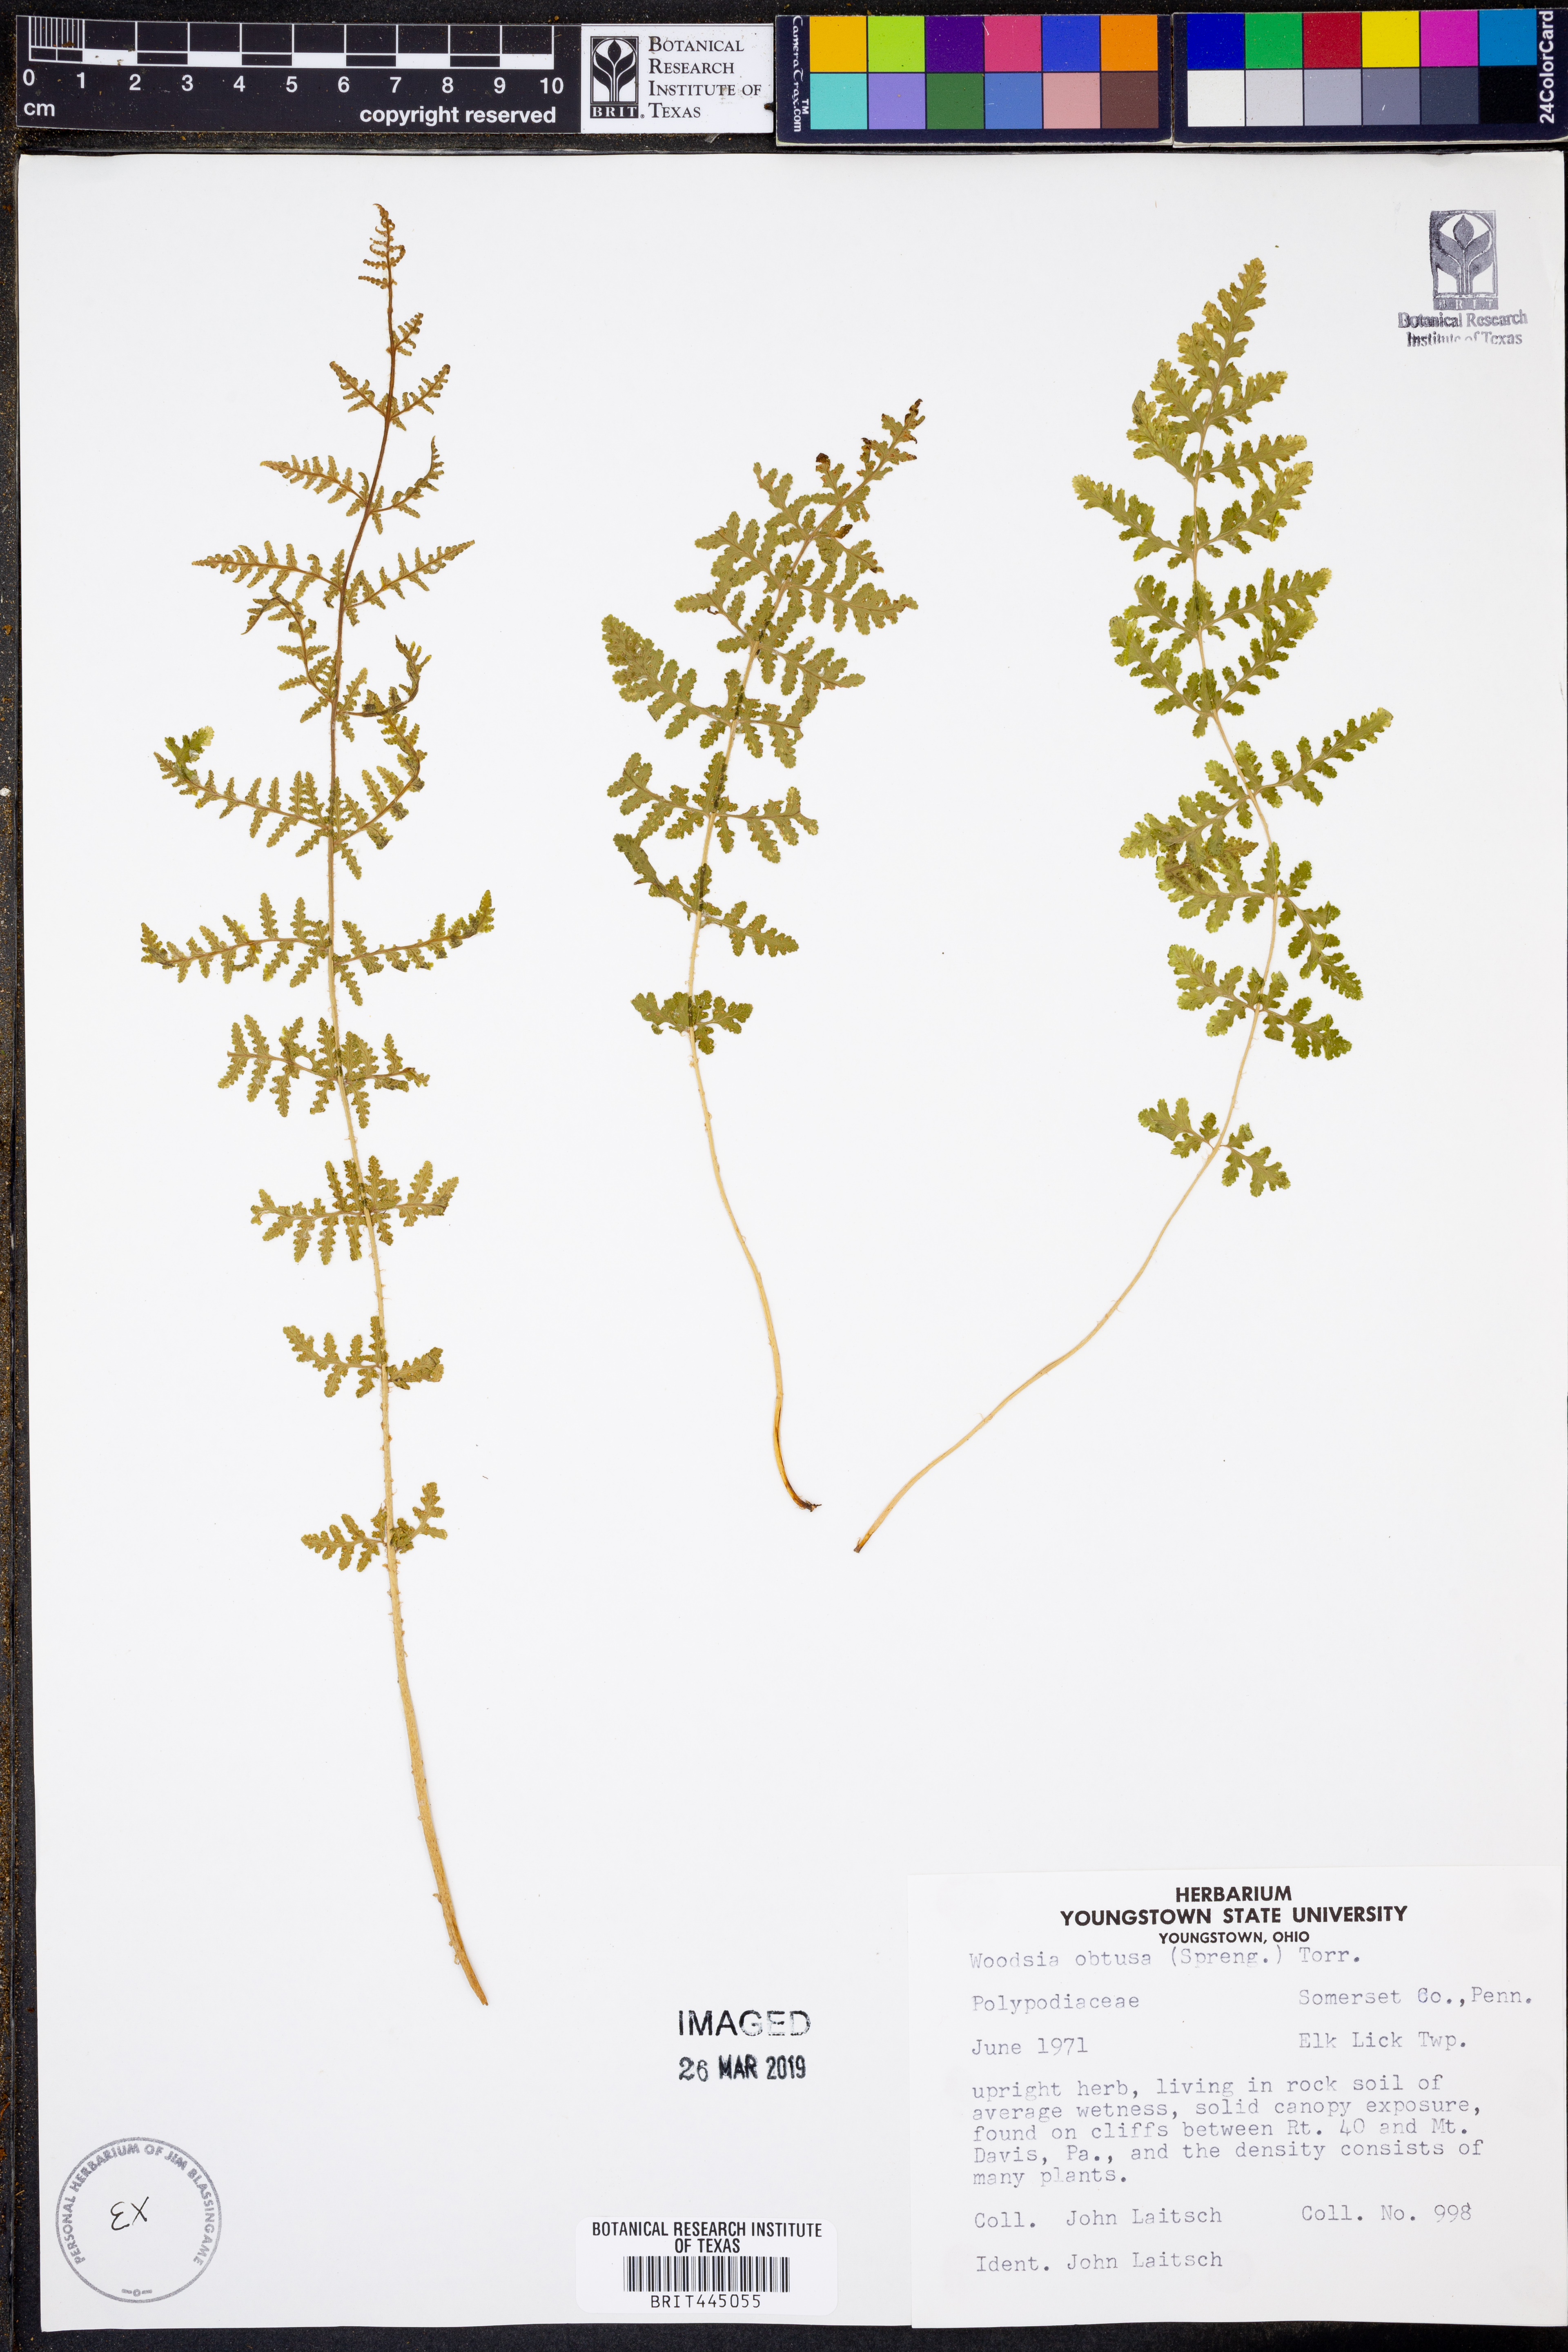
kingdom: Plantae
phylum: Tracheophyta
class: Polypodiopsida
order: Polypodiales
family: Woodsiaceae
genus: Physematium
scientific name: Physematium obtusum
